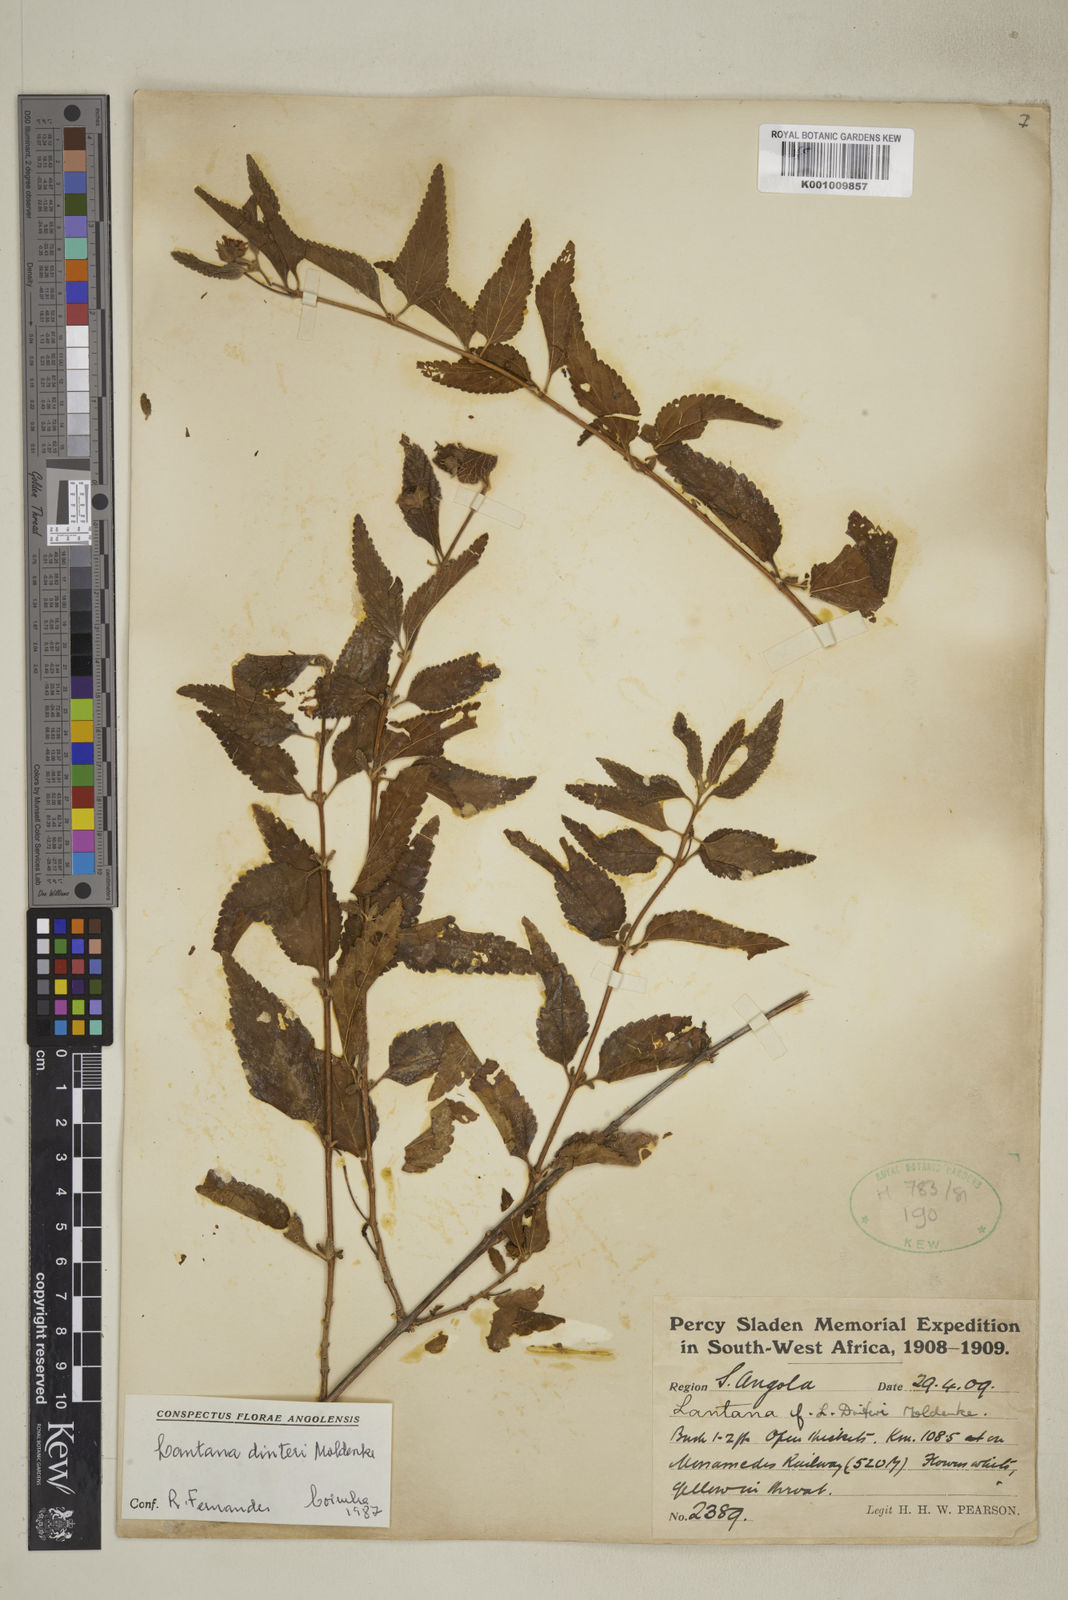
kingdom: Plantae
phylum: Tracheophyta
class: Magnoliopsida
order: Lamiales
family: Verbenaceae
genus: Lantana
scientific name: Lantana dinteri
